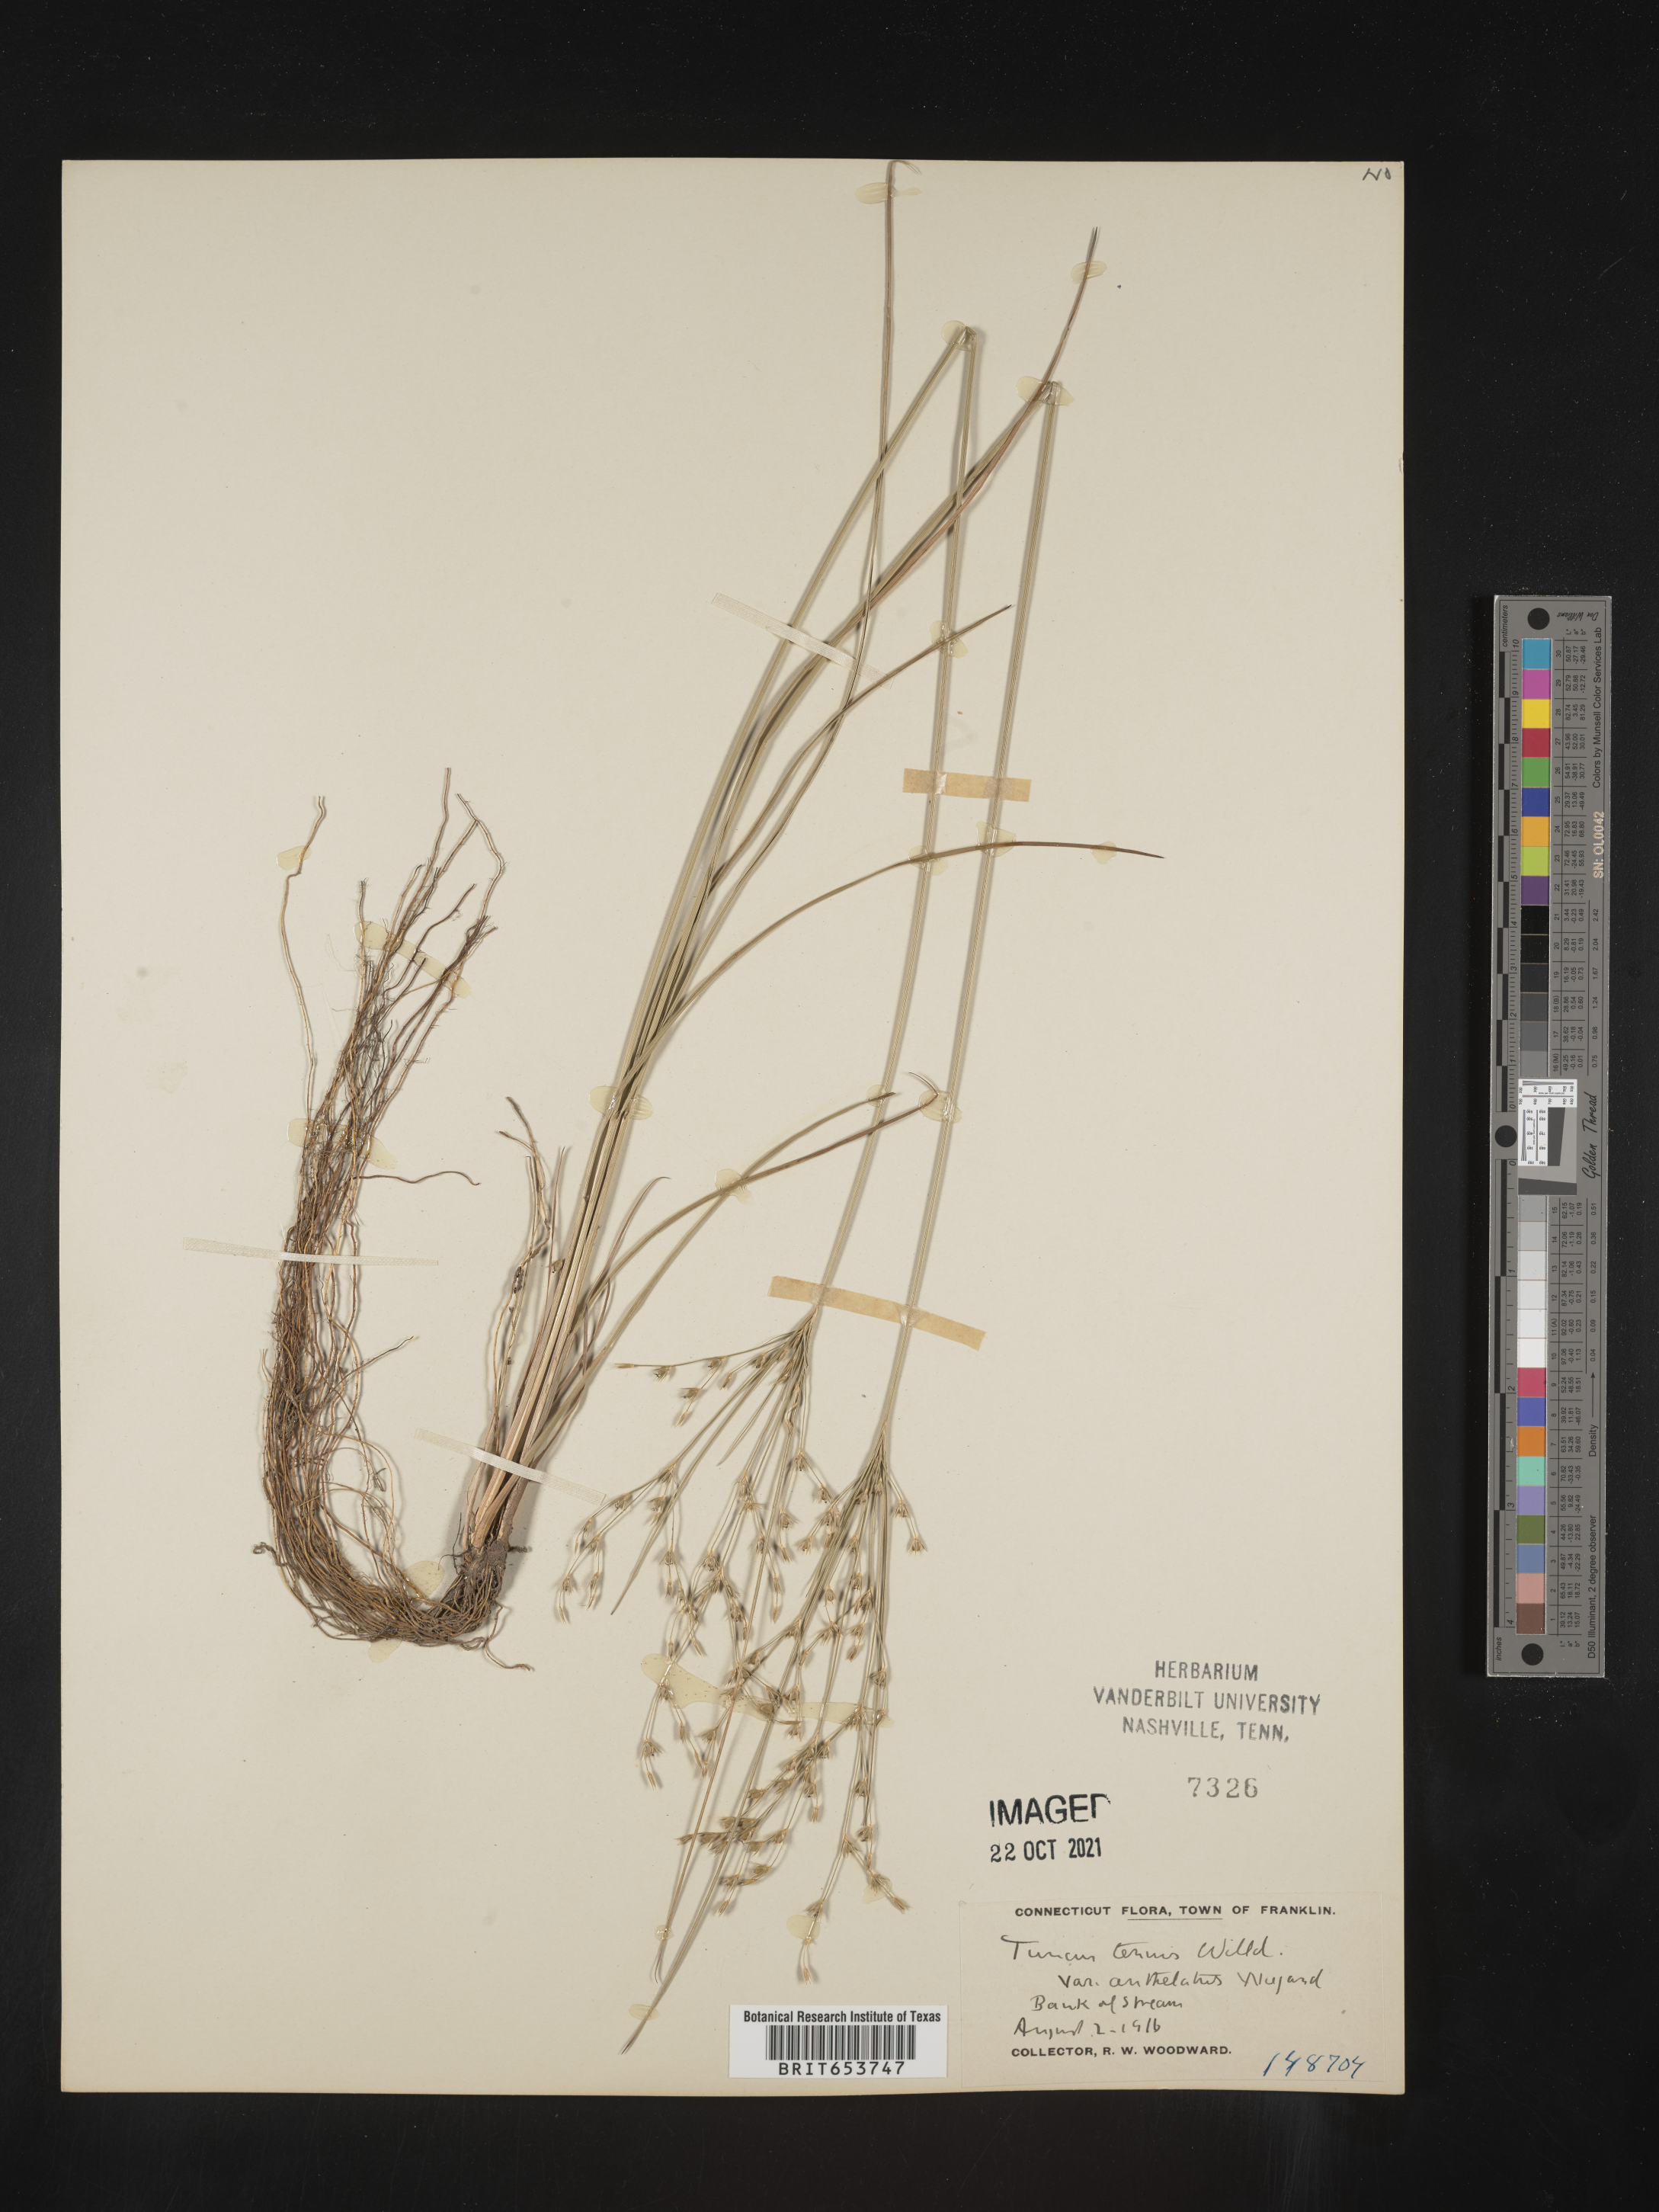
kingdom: Plantae
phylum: Tracheophyta
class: Liliopsida
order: Poales
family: Juncaceae
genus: Juncus
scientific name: Juncus tenuis
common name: Slender rush
